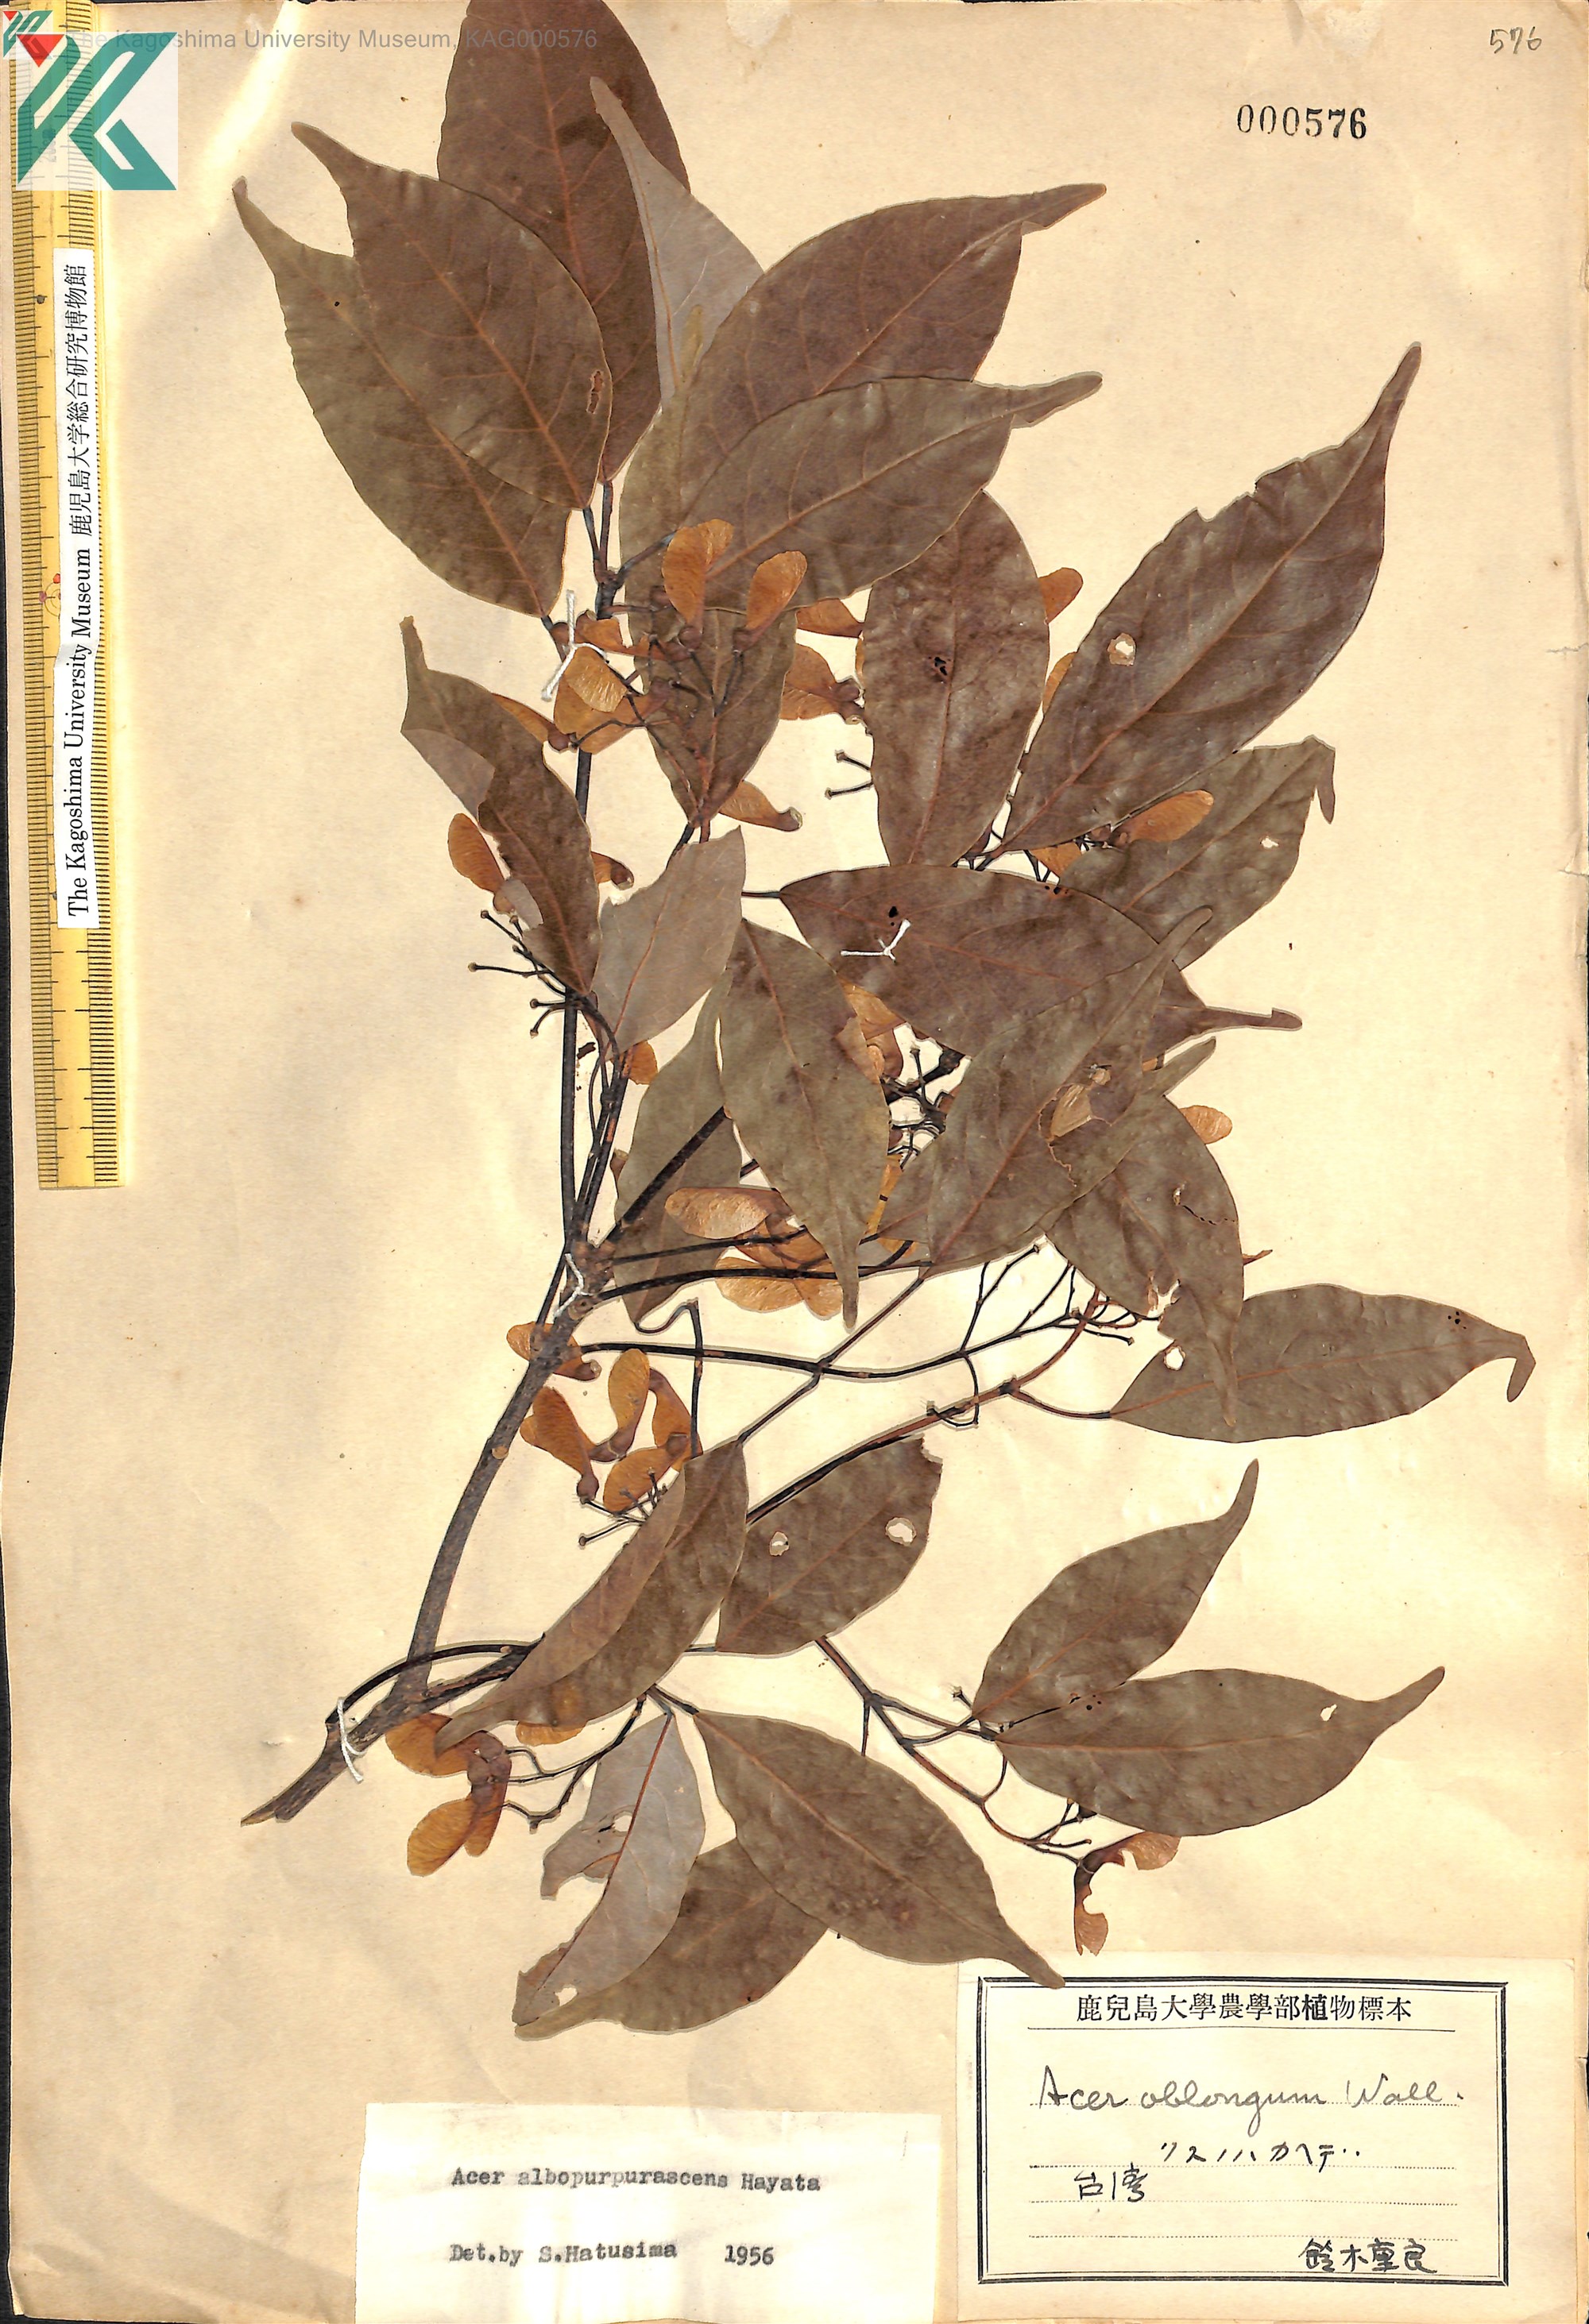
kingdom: Plantae
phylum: Tracheophyta
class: Magnoliopsida
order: Sapindales
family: Sapindaceae
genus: Acer
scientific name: Acer oblongum
